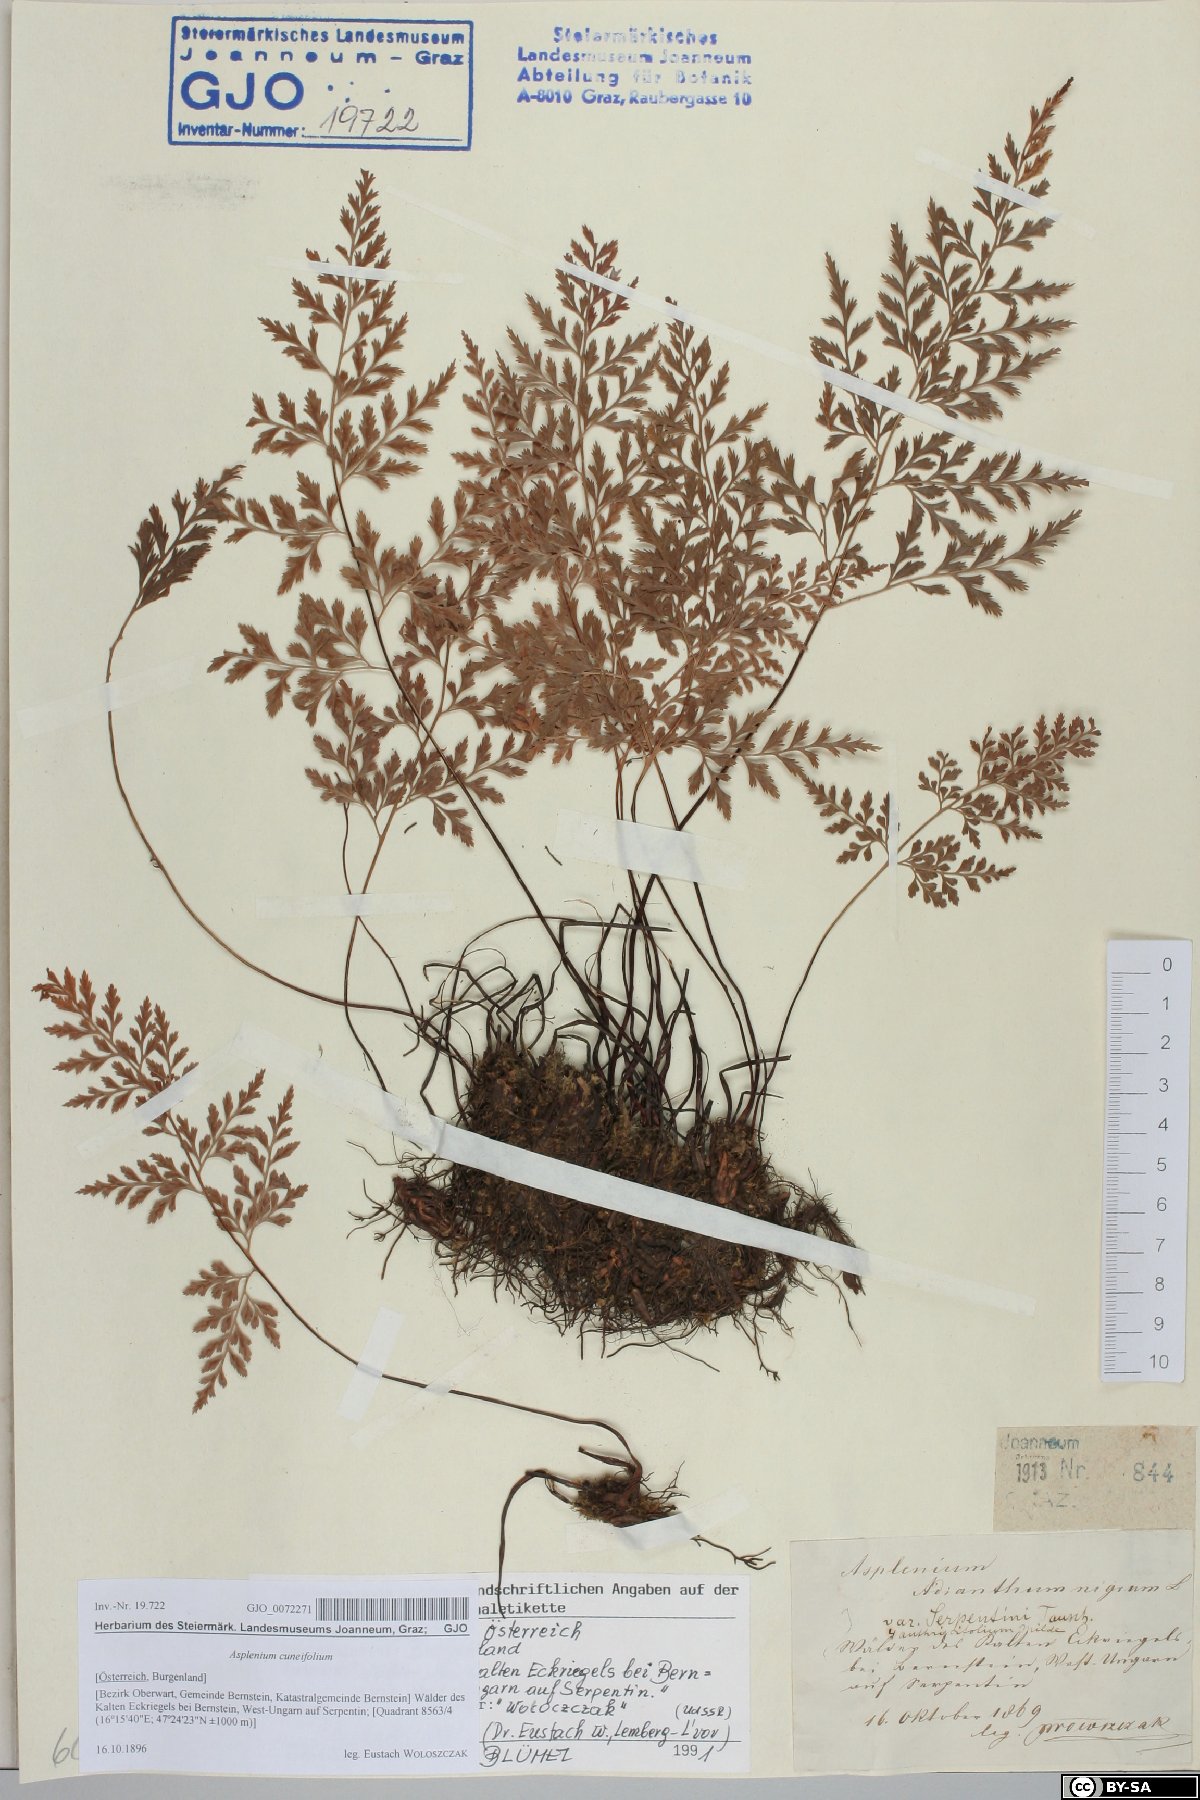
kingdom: Plantae
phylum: Tracheophyta
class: Polypodiopsida
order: Polypodiales
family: Aspleniaceae
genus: Asplenium
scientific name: Asplenium cuneifolium
